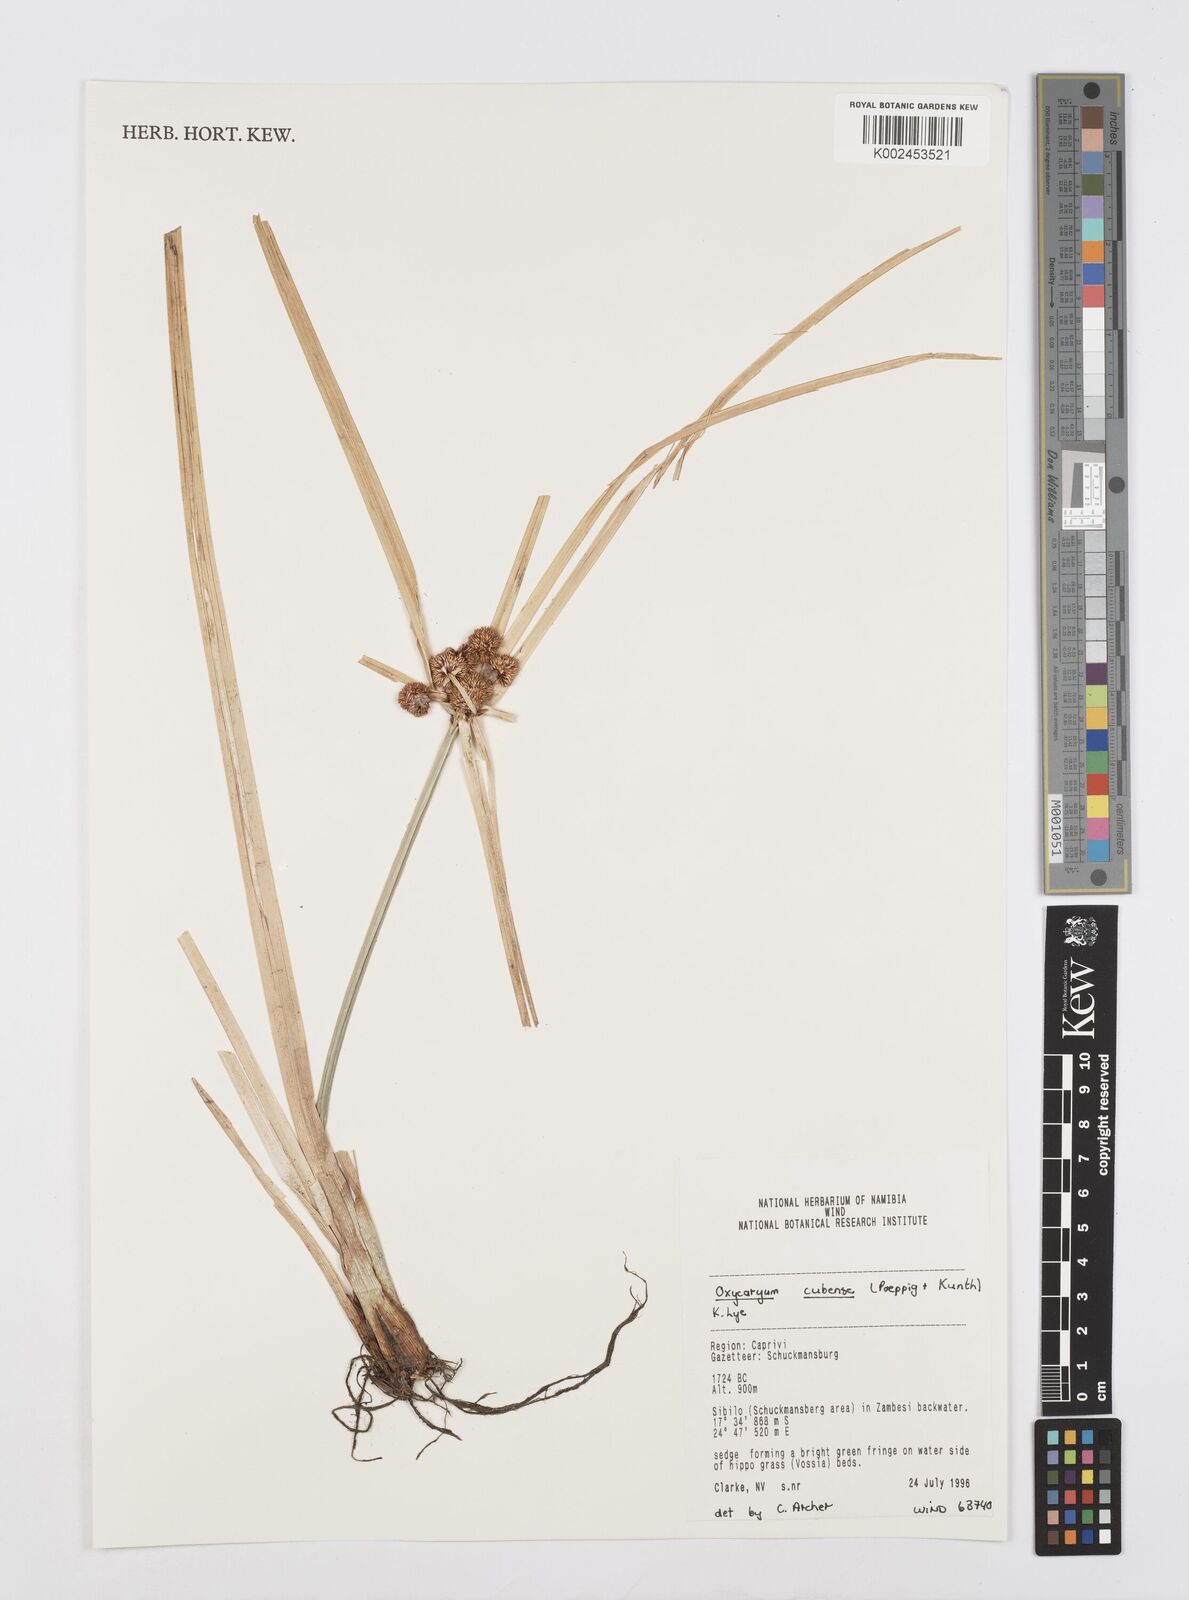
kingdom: Plantae
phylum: Tracheophyta
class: Liliopsida
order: Poales
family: Cyperaceae
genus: Cyperus
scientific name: Cyperus elegans
